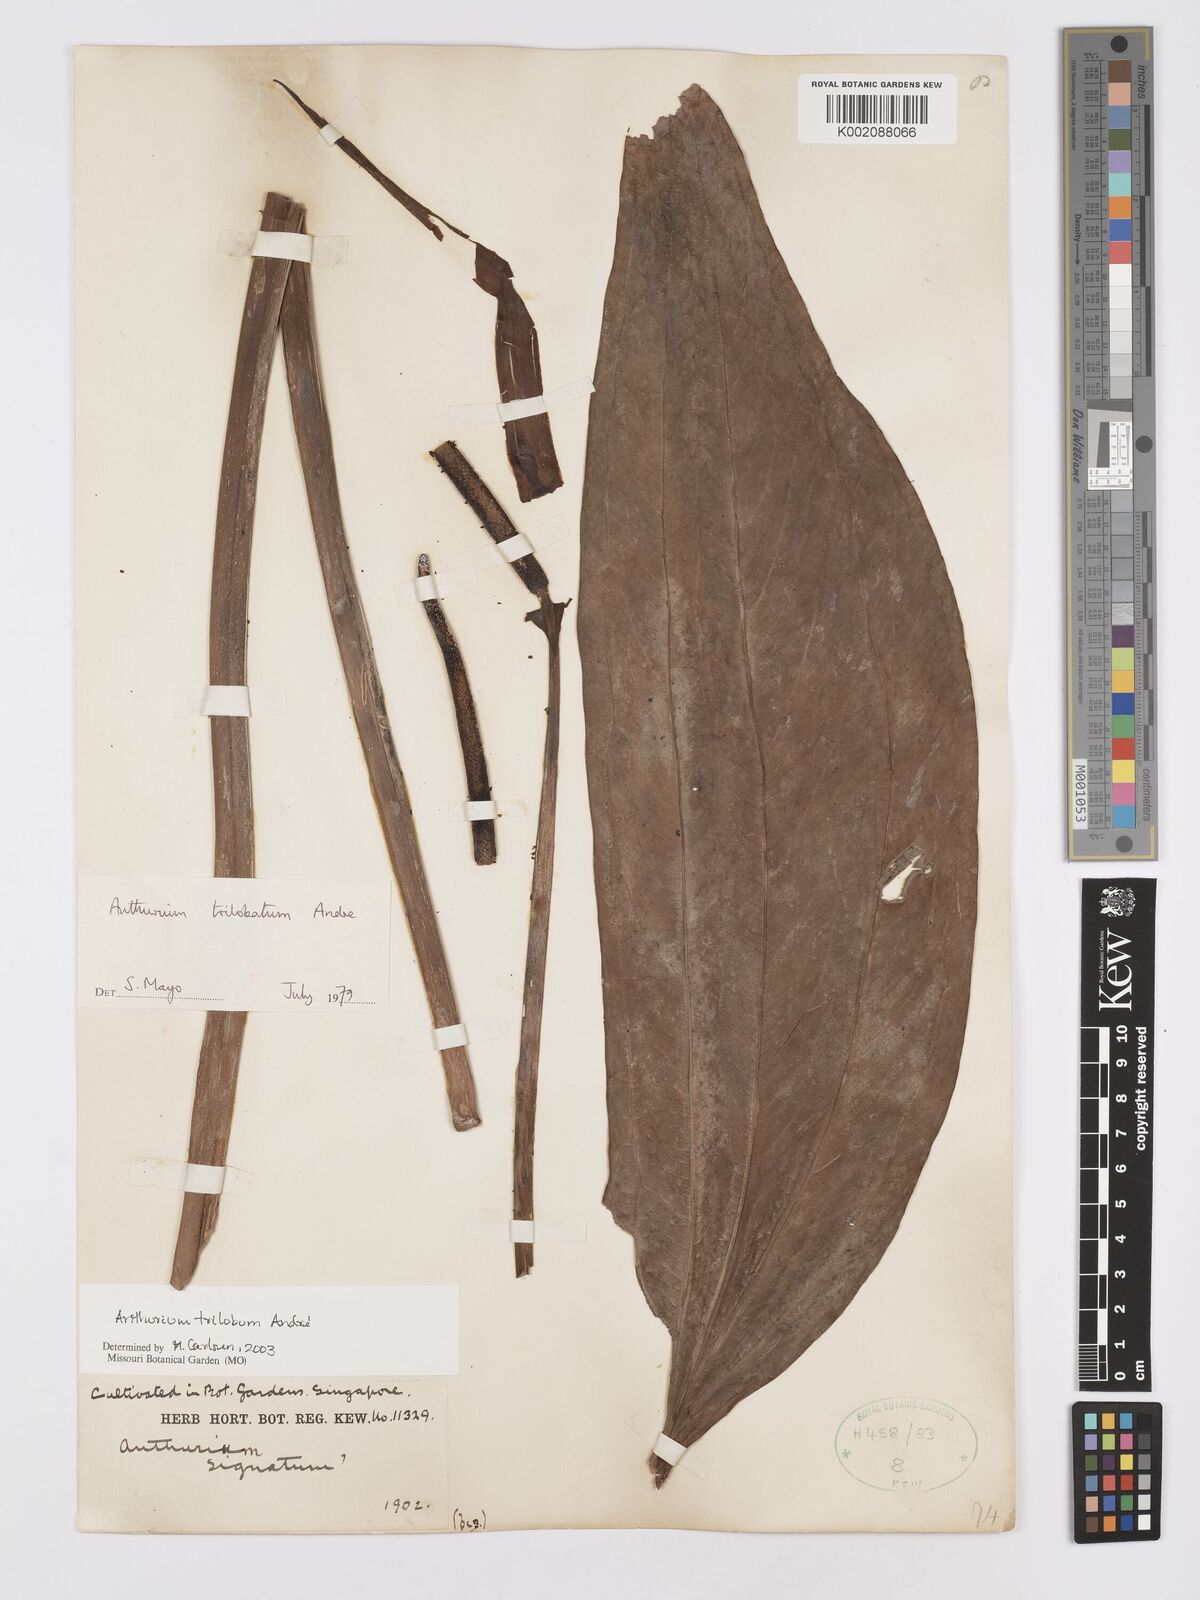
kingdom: Plantae
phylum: Tracheophyta
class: Liliopsida
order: Alismatales
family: Araceae
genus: Anthurium
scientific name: Anthurium trilobum
